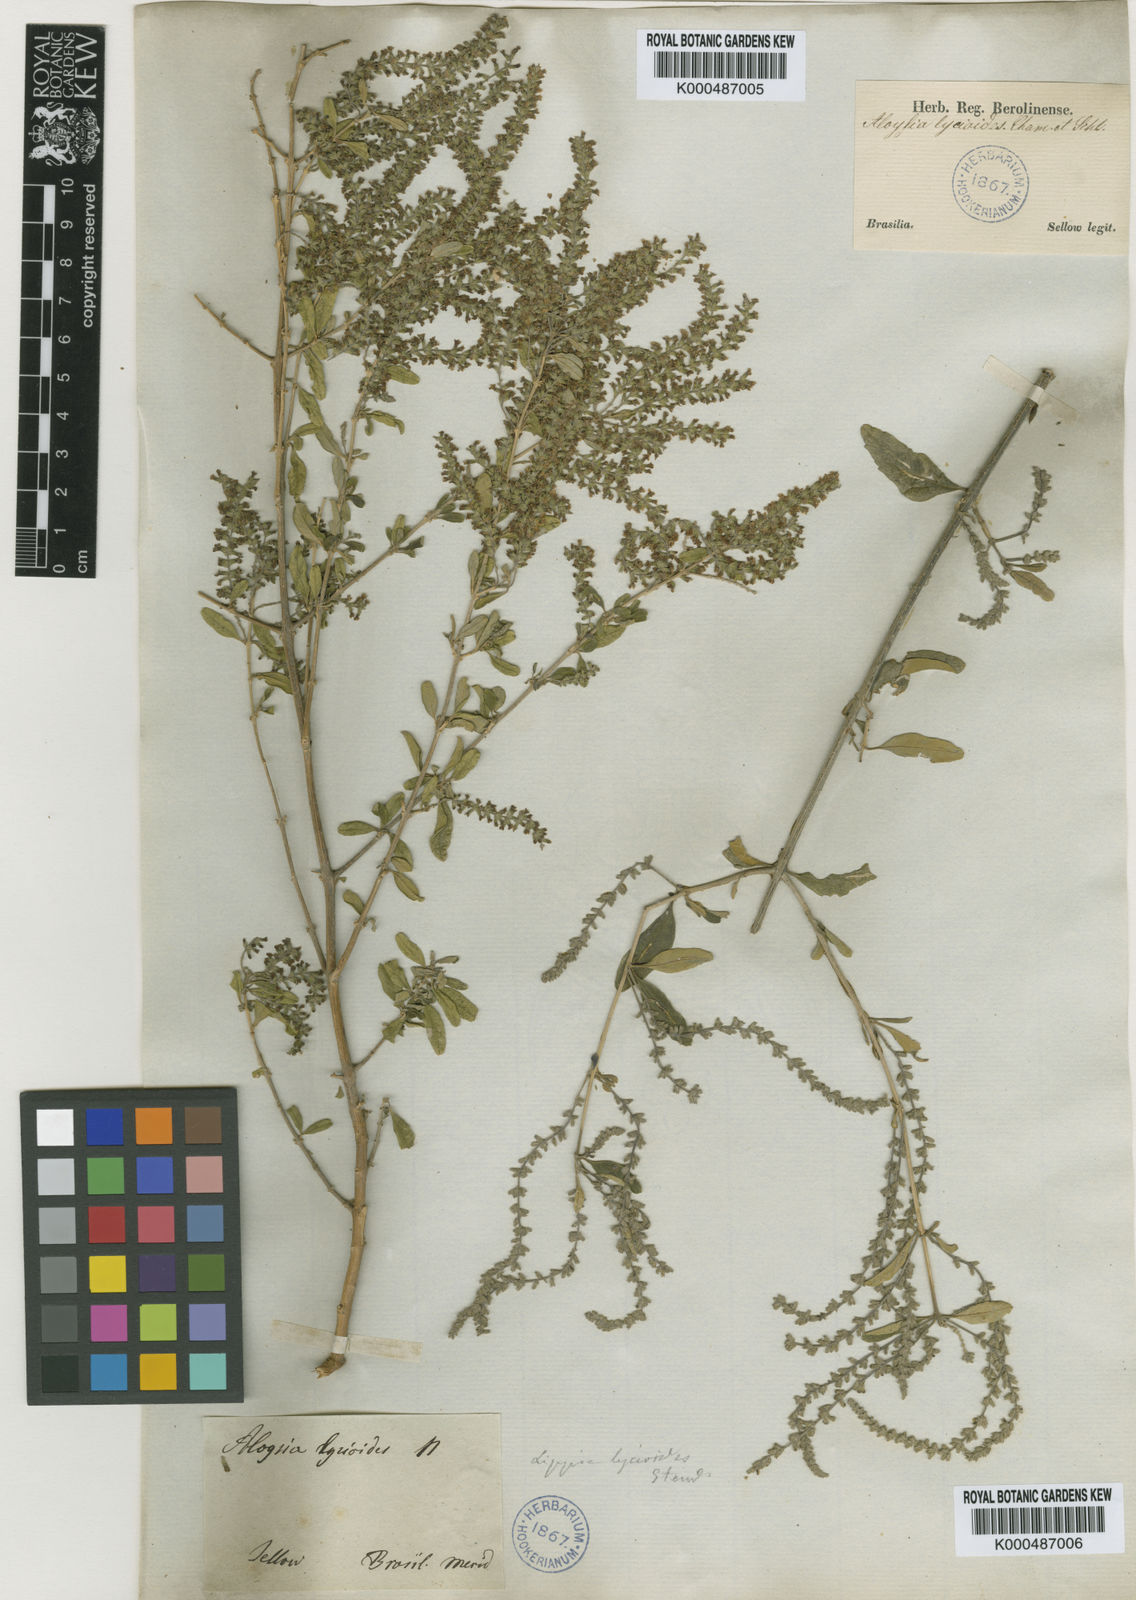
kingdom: Plantae
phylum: Tracheophyta
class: Magnoliopsida
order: Lamiales
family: Verbenaceae
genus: Aloysia
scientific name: Aloysia gratissima
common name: Common bee-brush
